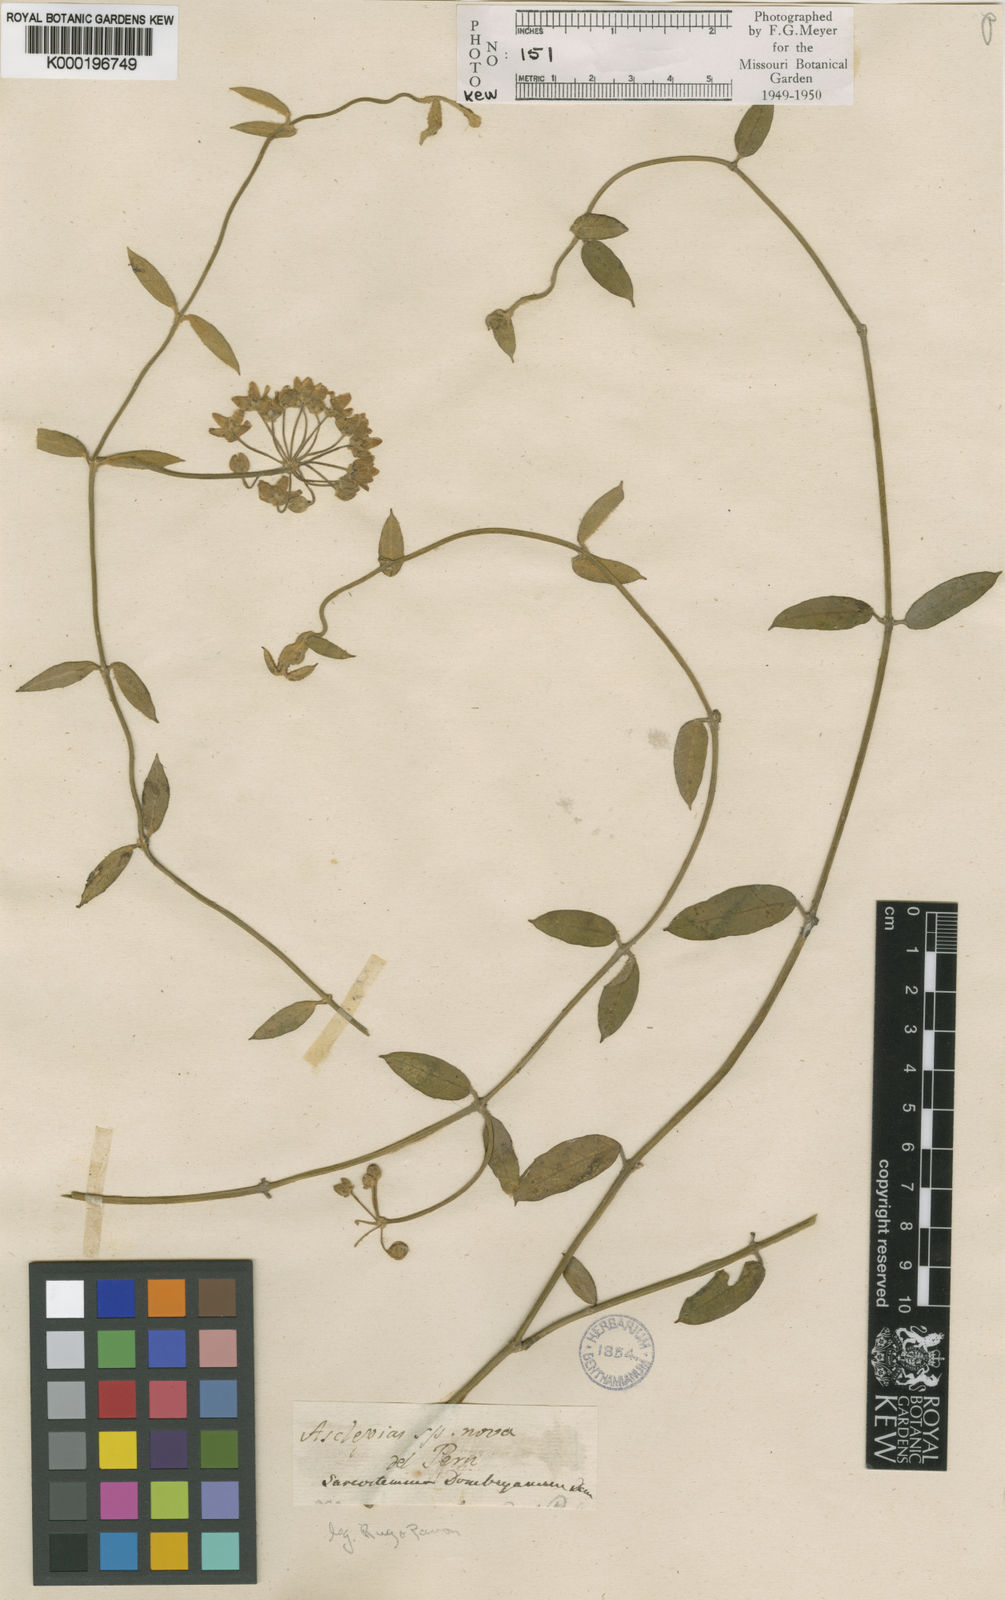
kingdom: Plantae
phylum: Tracheophyta
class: Magnoliopsida
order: Gentianales
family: Apocynaceae
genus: Funastrum
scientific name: Funastrum clausum
